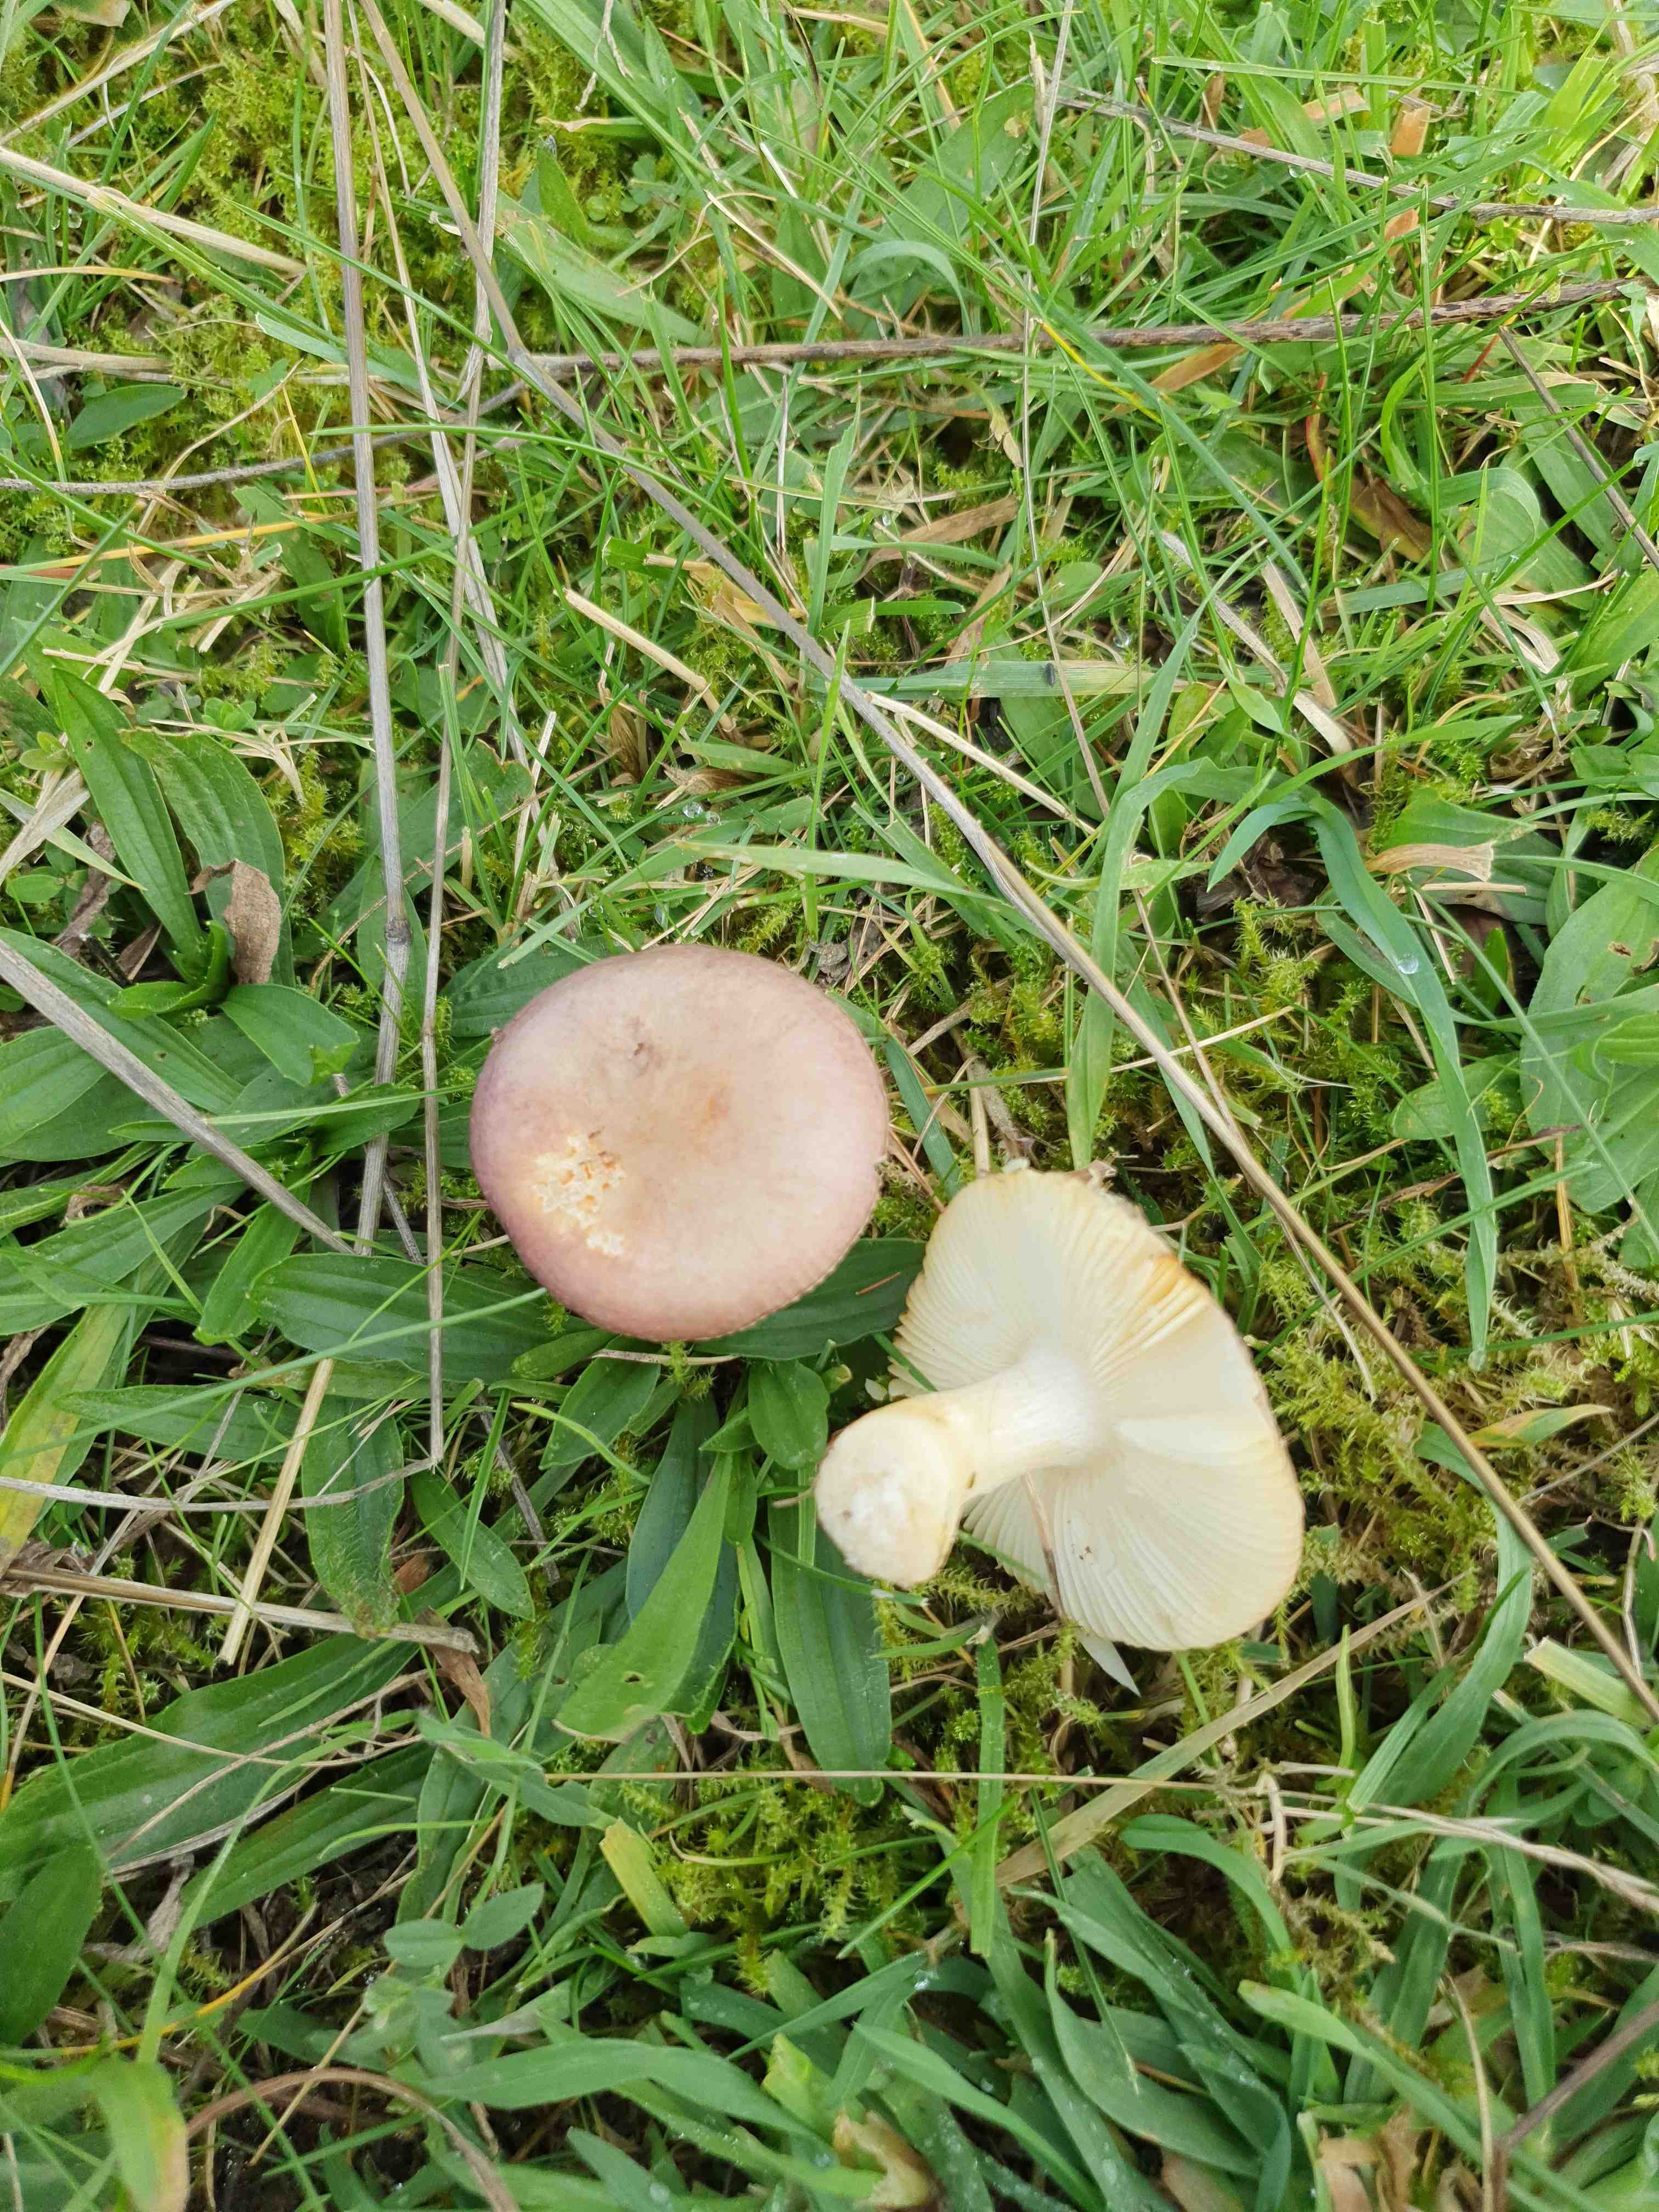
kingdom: Fungi
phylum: Basidiomycota
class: Agaricomycetes
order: Russulales
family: Russulaceae
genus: Russula
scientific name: Russula versicolor
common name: foranderlig skørhat
